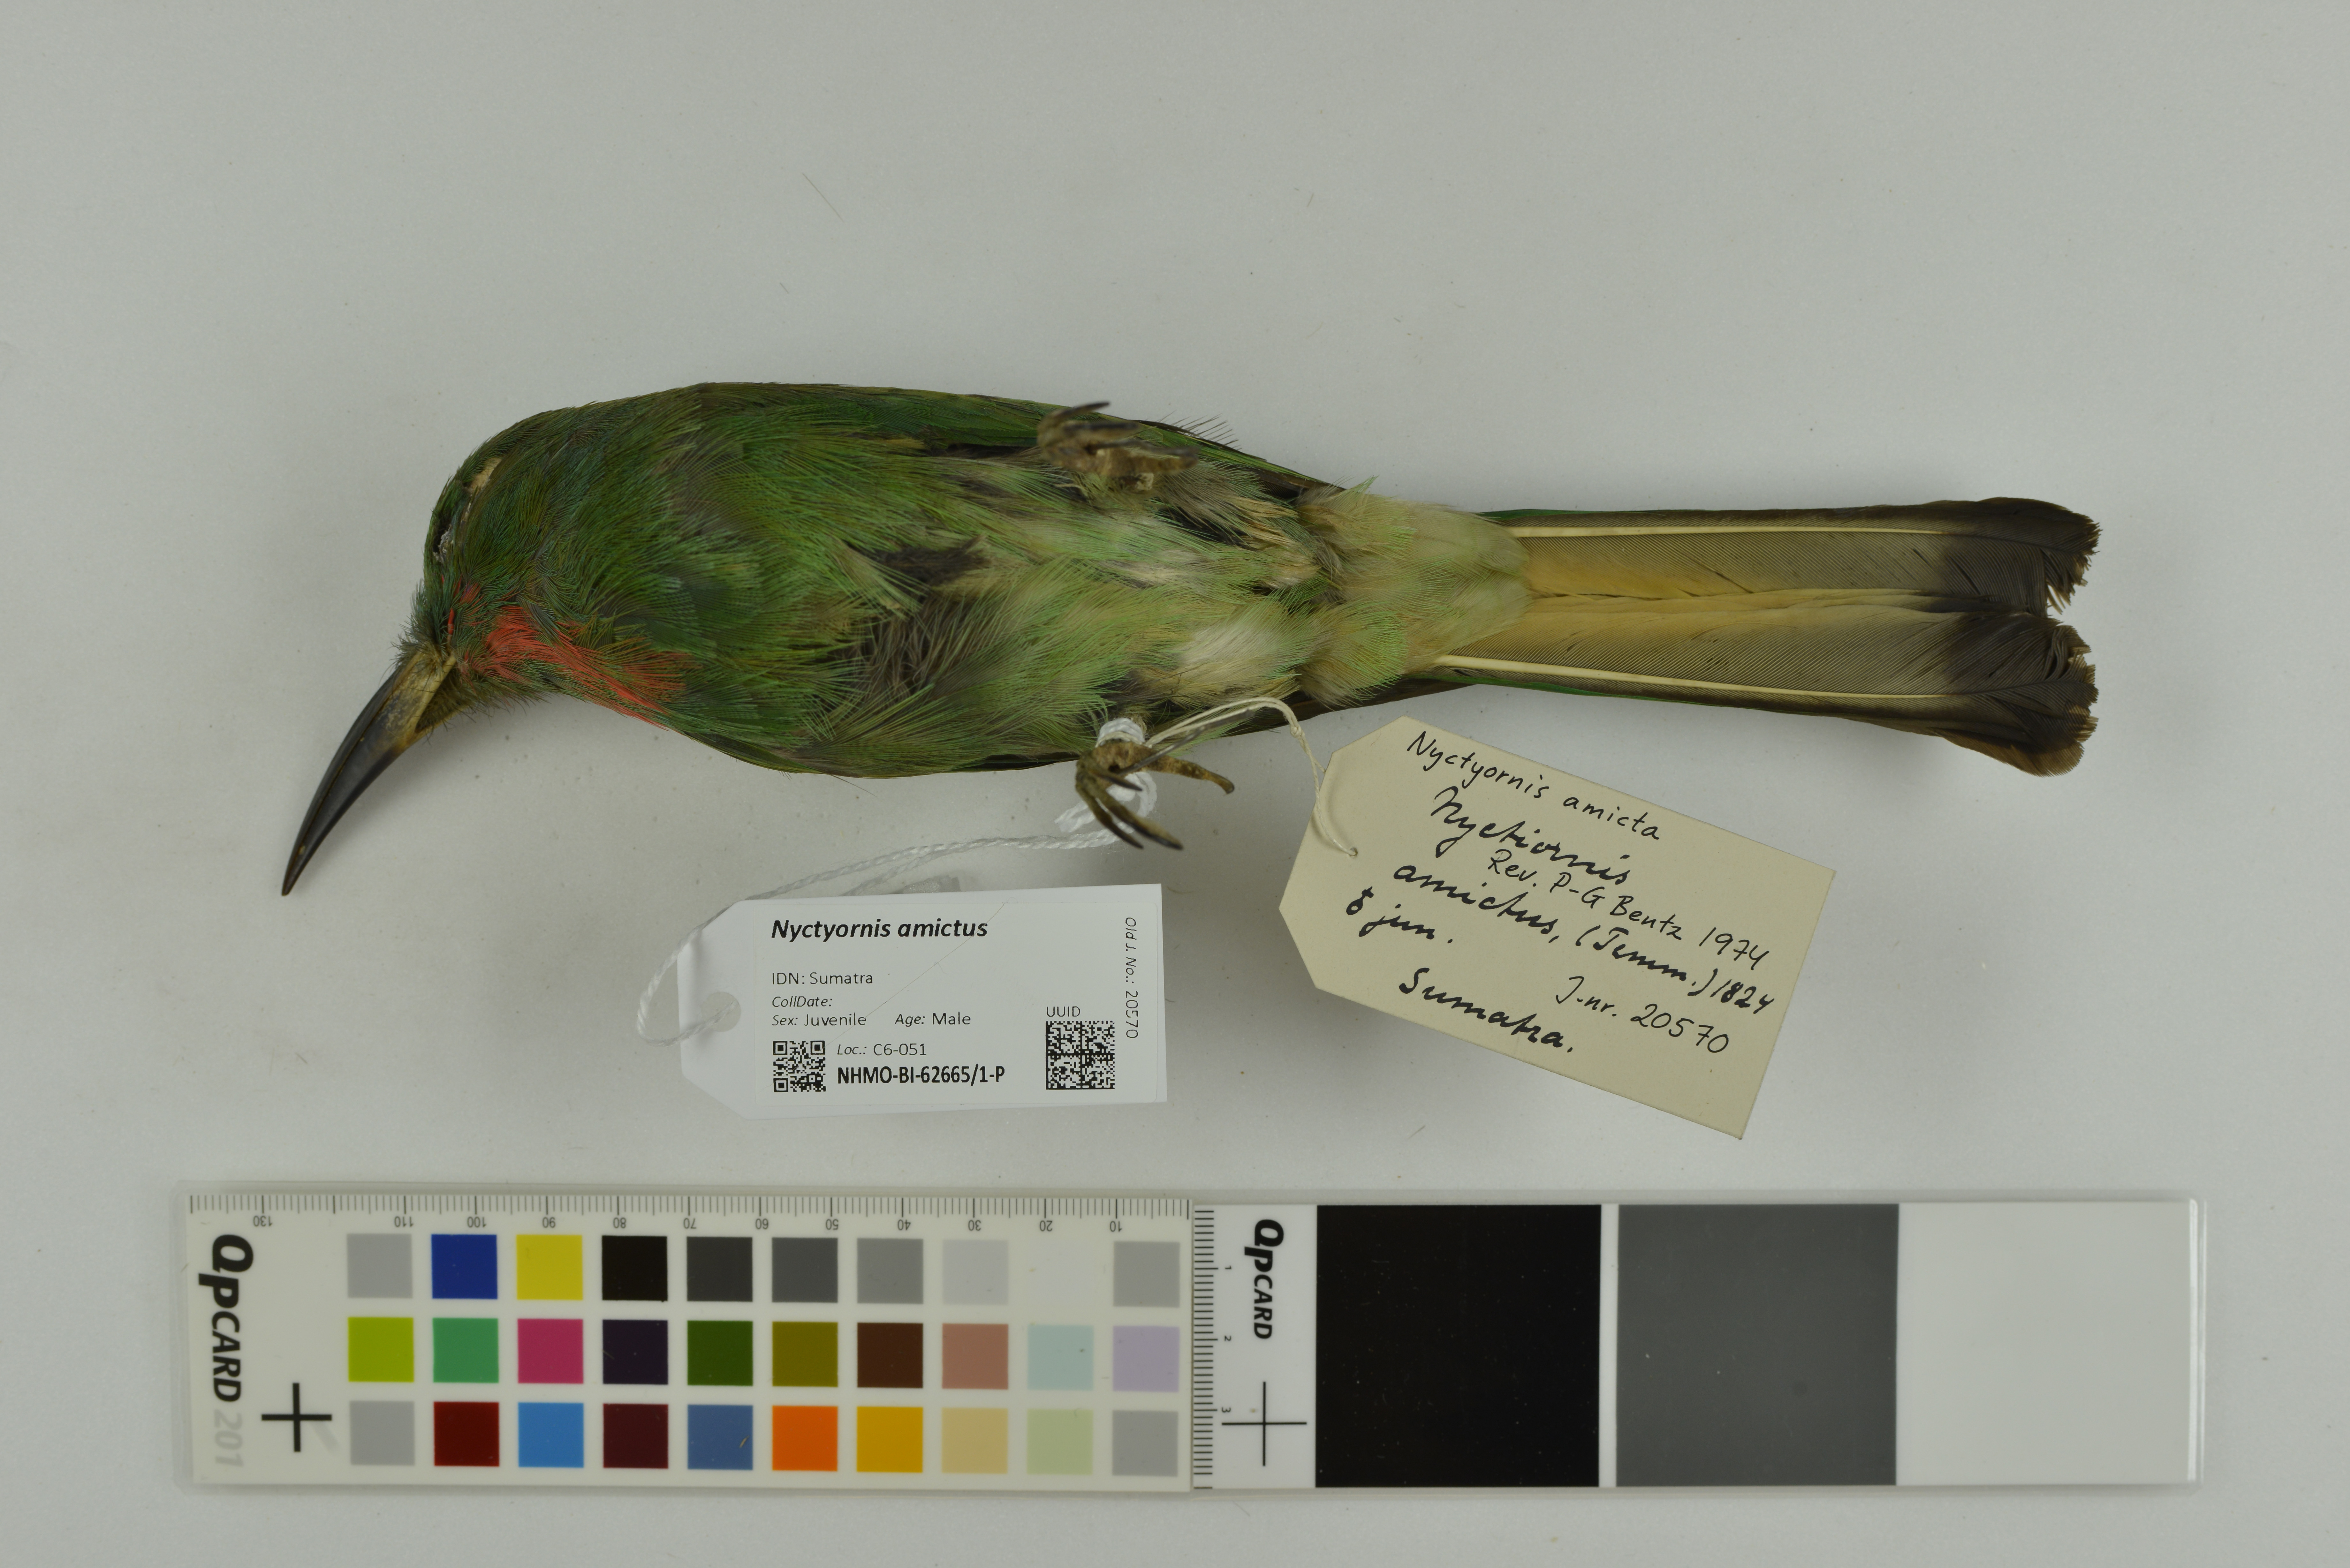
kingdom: Animalia
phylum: Chordata
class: Aves
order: Coraciiformes
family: Meropidae
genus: Nyctyornis
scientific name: Nyctyornis amictus
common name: Red-bearded bee-eater
